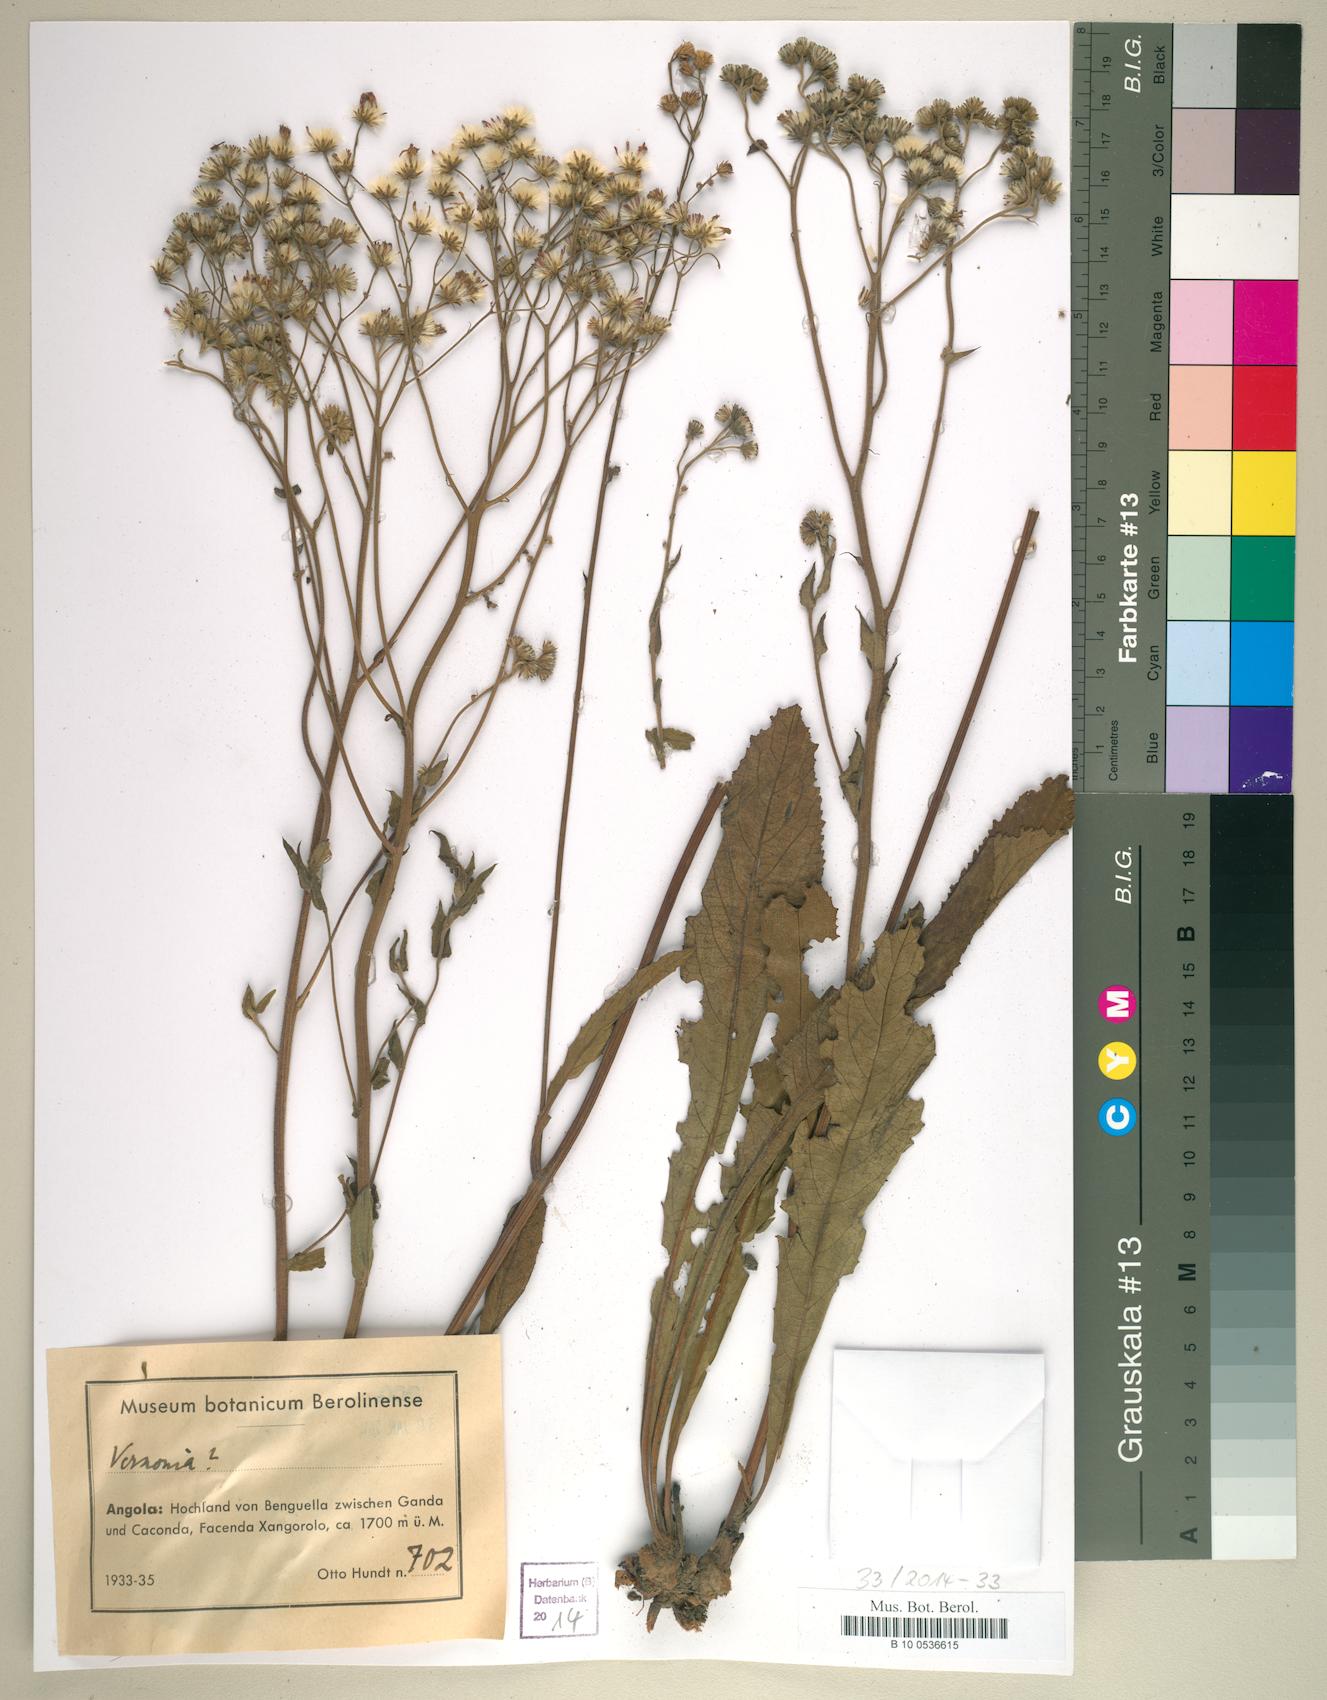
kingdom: Plantae
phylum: Tracheophyta
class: Magnoliopsida
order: Asterales
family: Asteraceae
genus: Vernonia
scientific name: Vernonia
